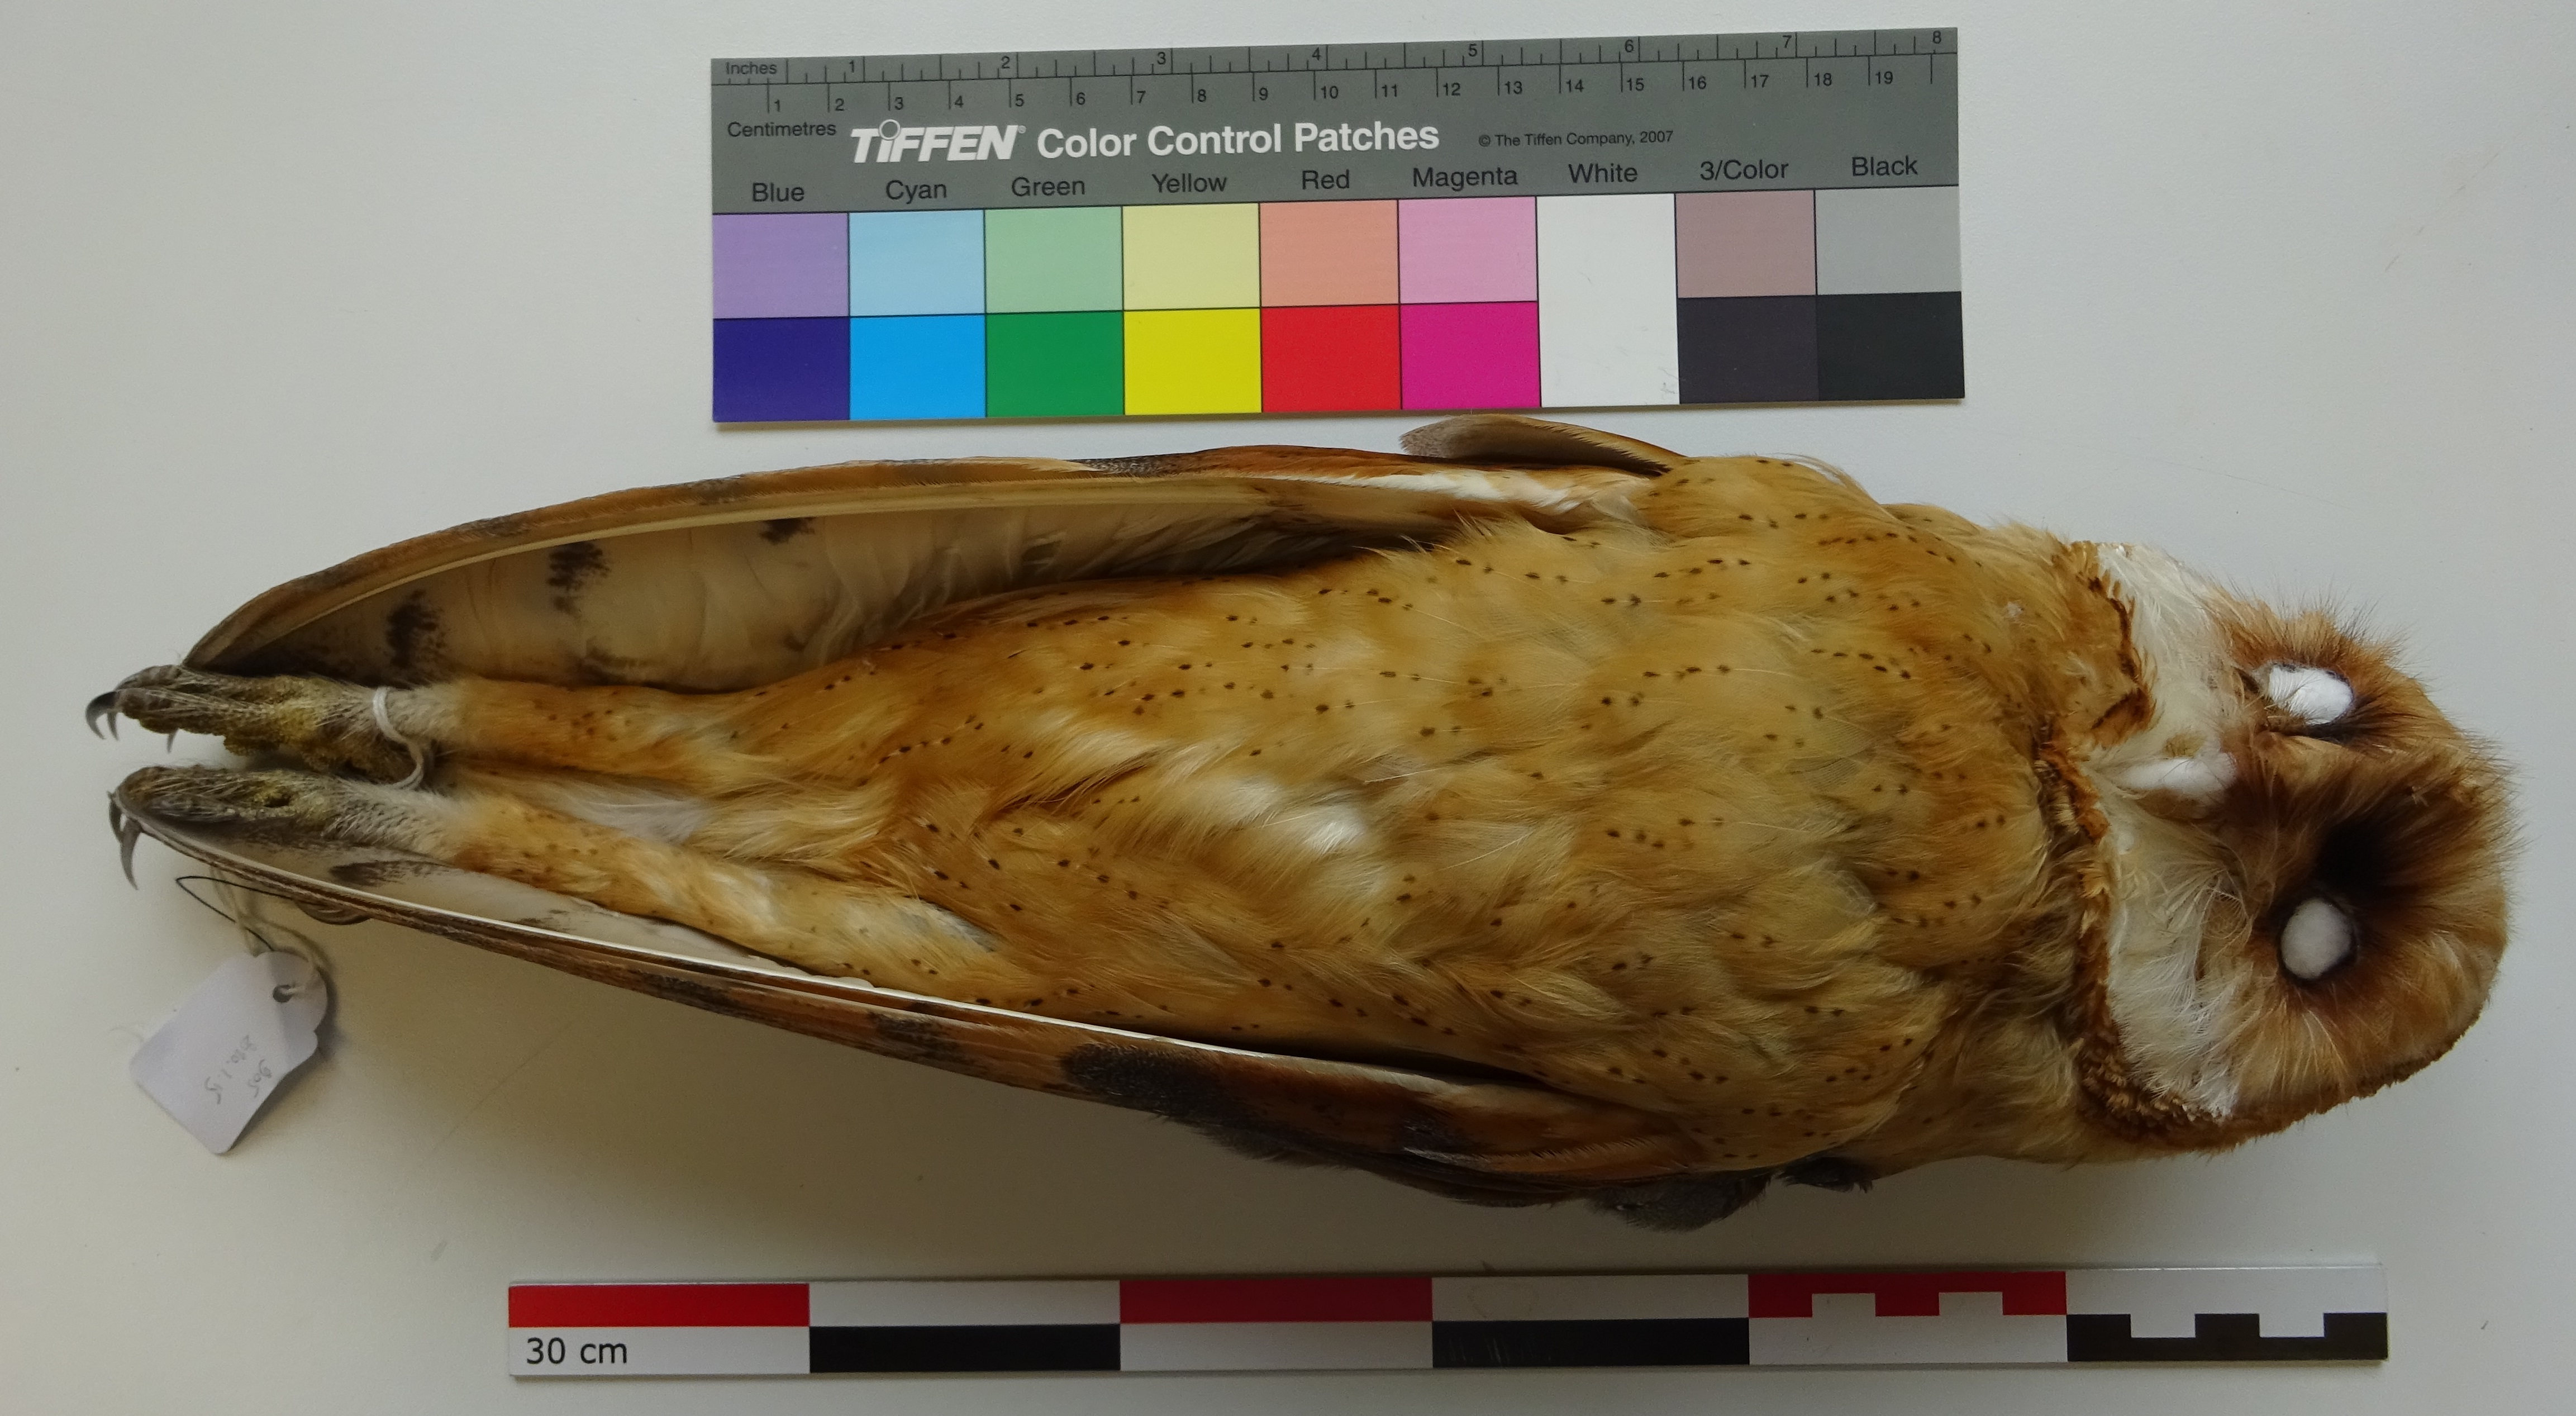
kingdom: Animalia
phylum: Chordata
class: Aves
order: Strigiformes
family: Tytonidae
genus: Tyto
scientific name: Tyto alba
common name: Barn owl
